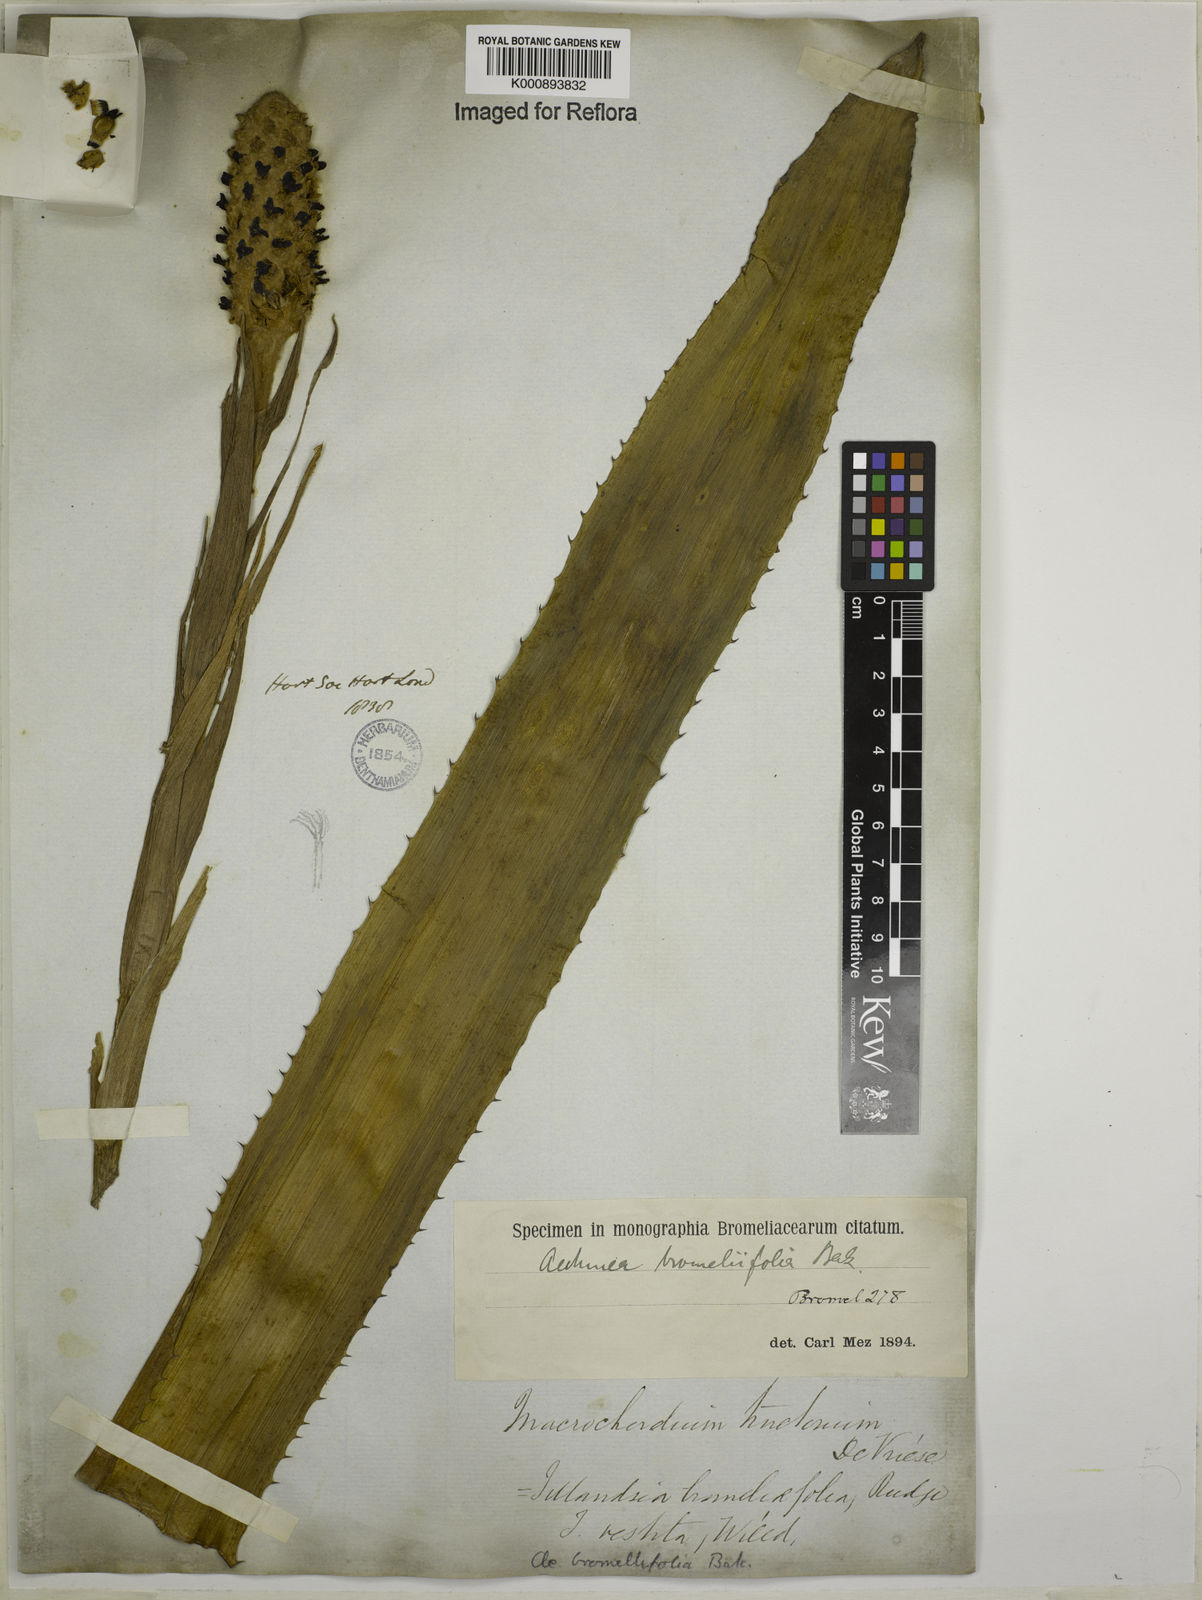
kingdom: Plantae
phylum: Tracheophyta
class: Liliopsida
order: Poales
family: Bromeliaceae
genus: Aechmea
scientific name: Aechmea
